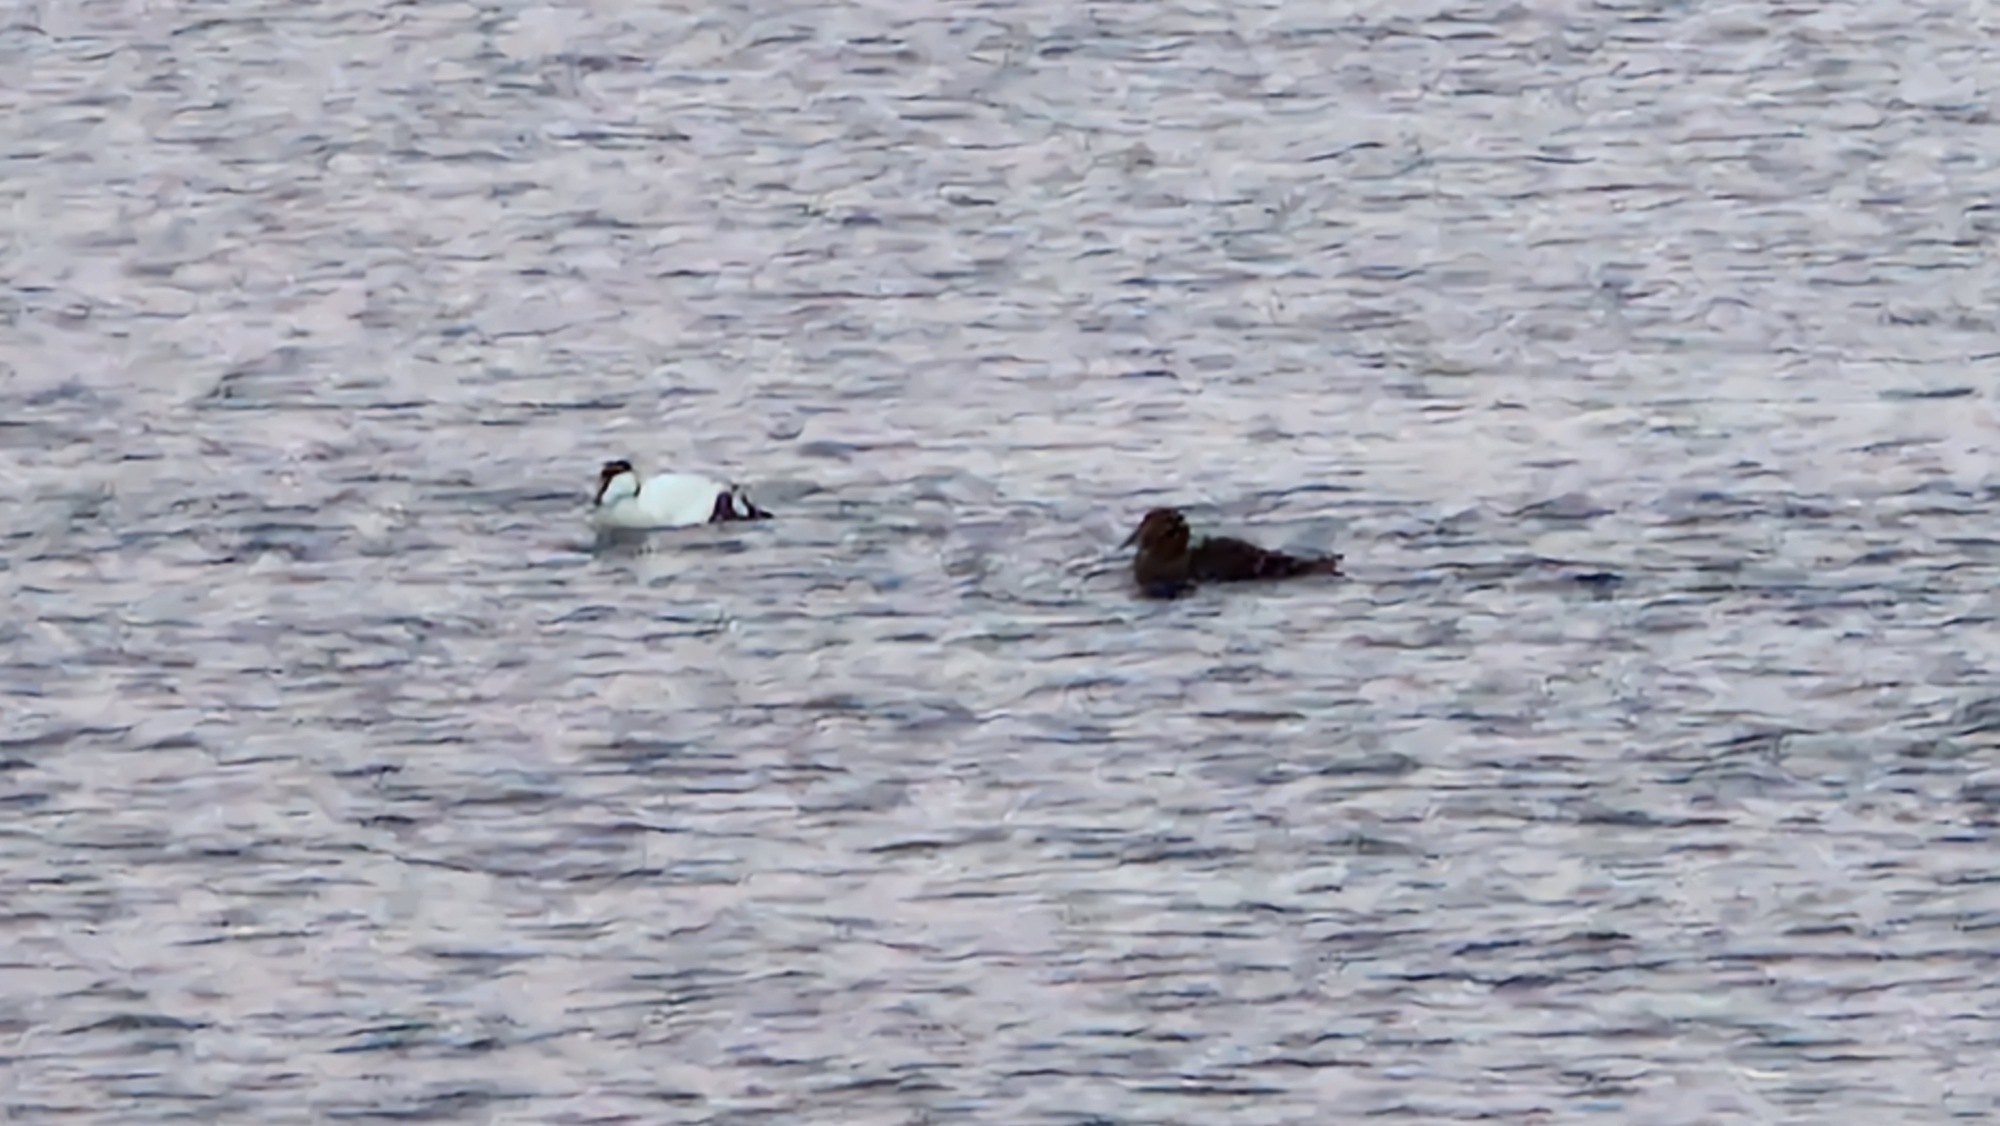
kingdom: Animalia
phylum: Chordata
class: Aves
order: Anseriformes
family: Anatidae
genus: Somateria
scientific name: Somateria mollissima
